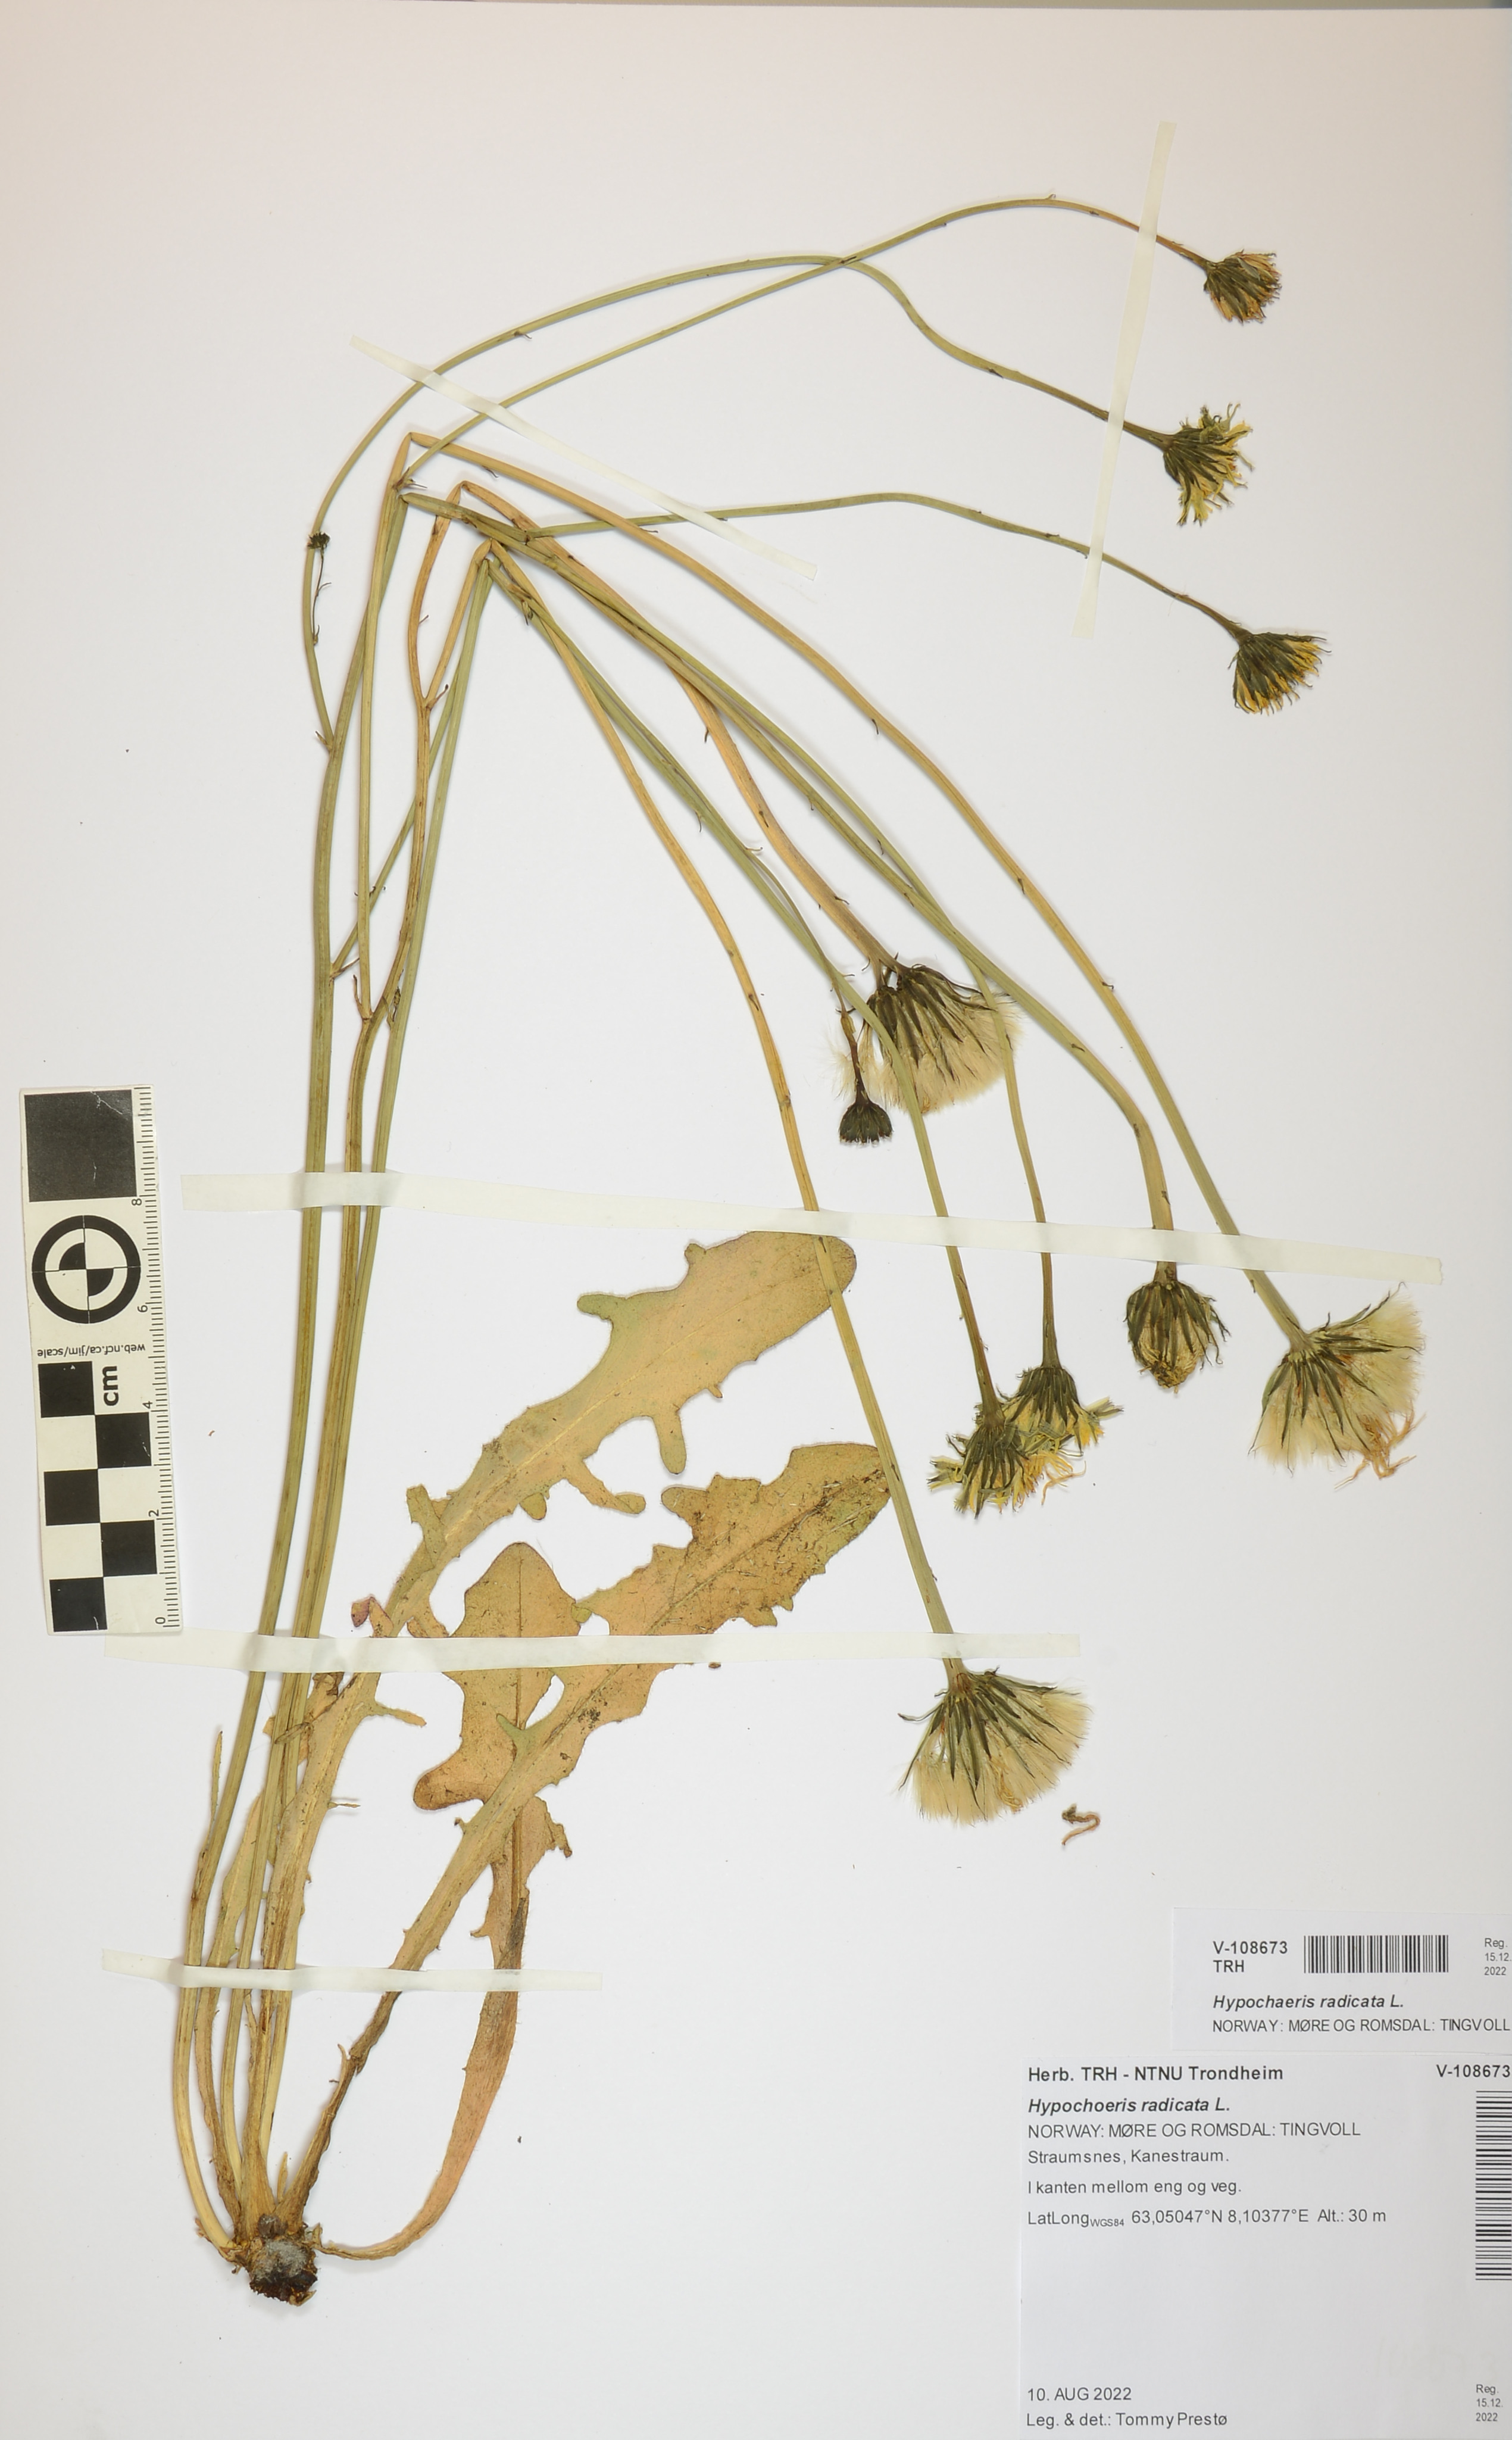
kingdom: Plantae
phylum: Tracheophyta
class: Magnoliopsida
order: Asterales
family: Asteraceae
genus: Hypochaeris
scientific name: Hypochaeris radicata
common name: Flatweed
